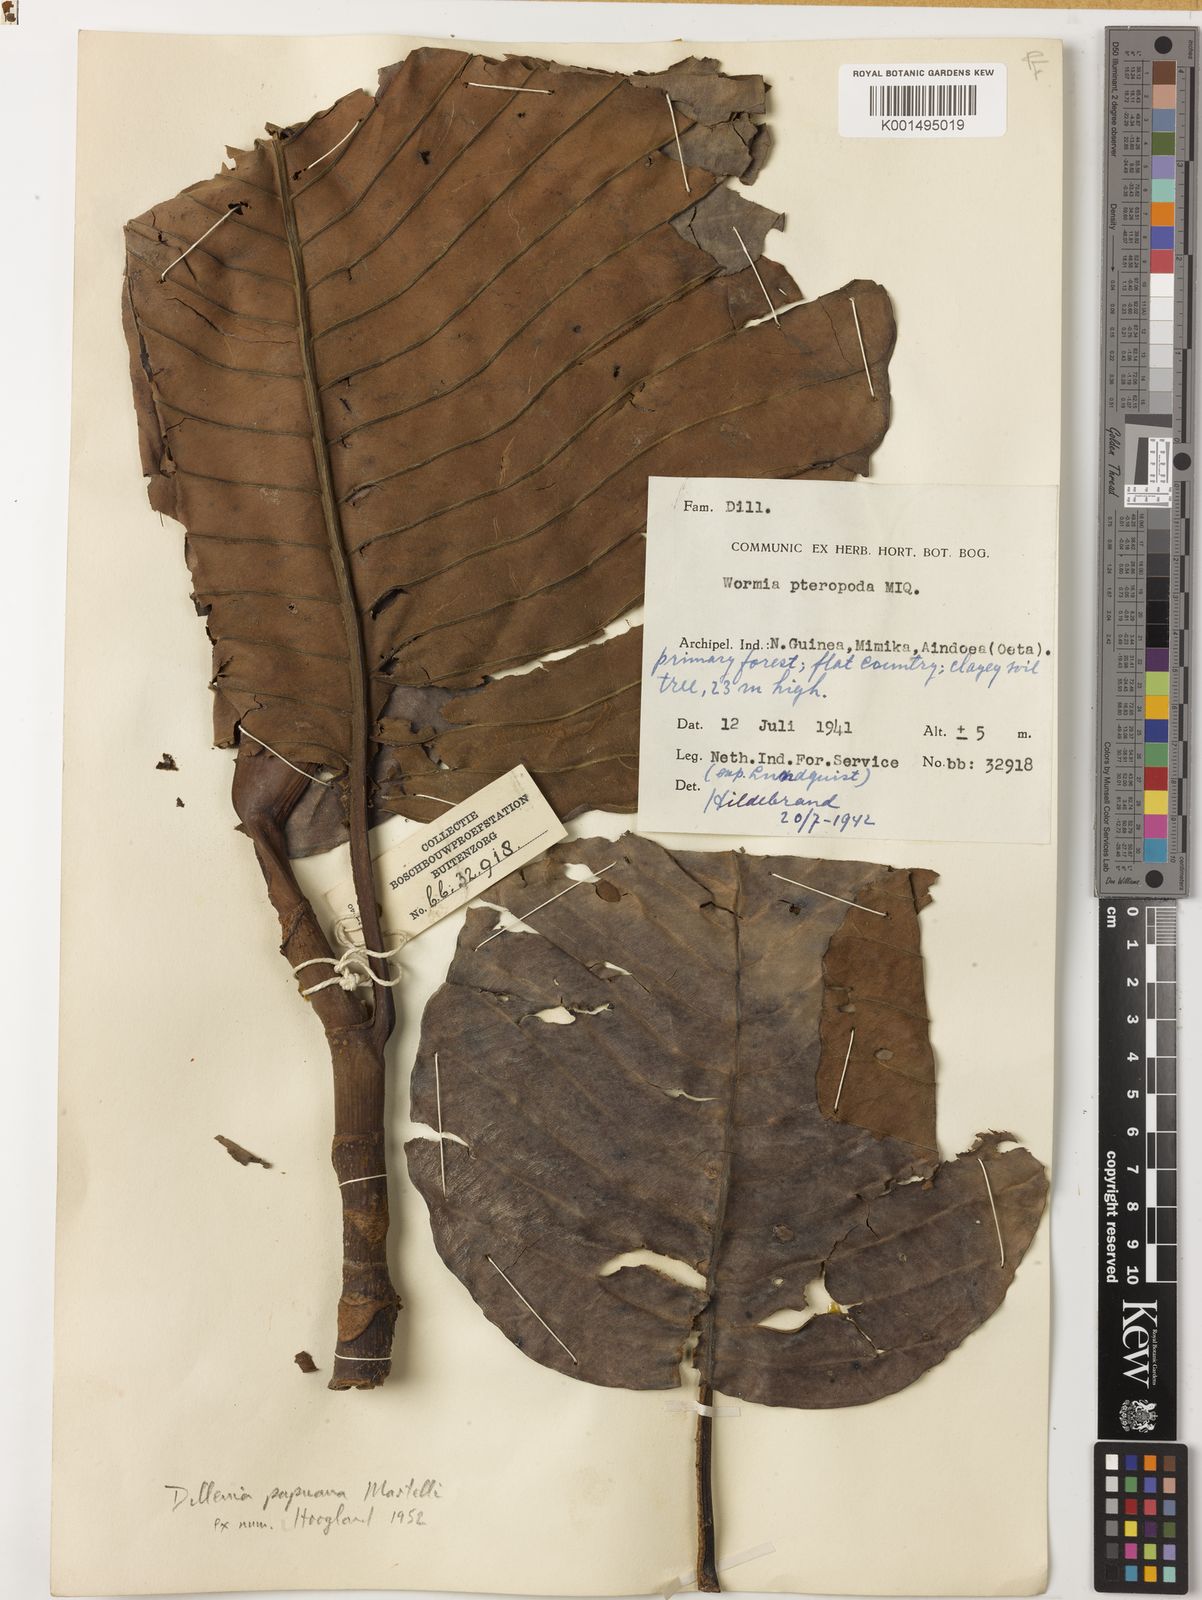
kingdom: Plantae
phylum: Tracheophyta
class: Magnoliopsida
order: Dilleniales
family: Dilleniaceae
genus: Dillenia
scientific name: Dillenia papuana
